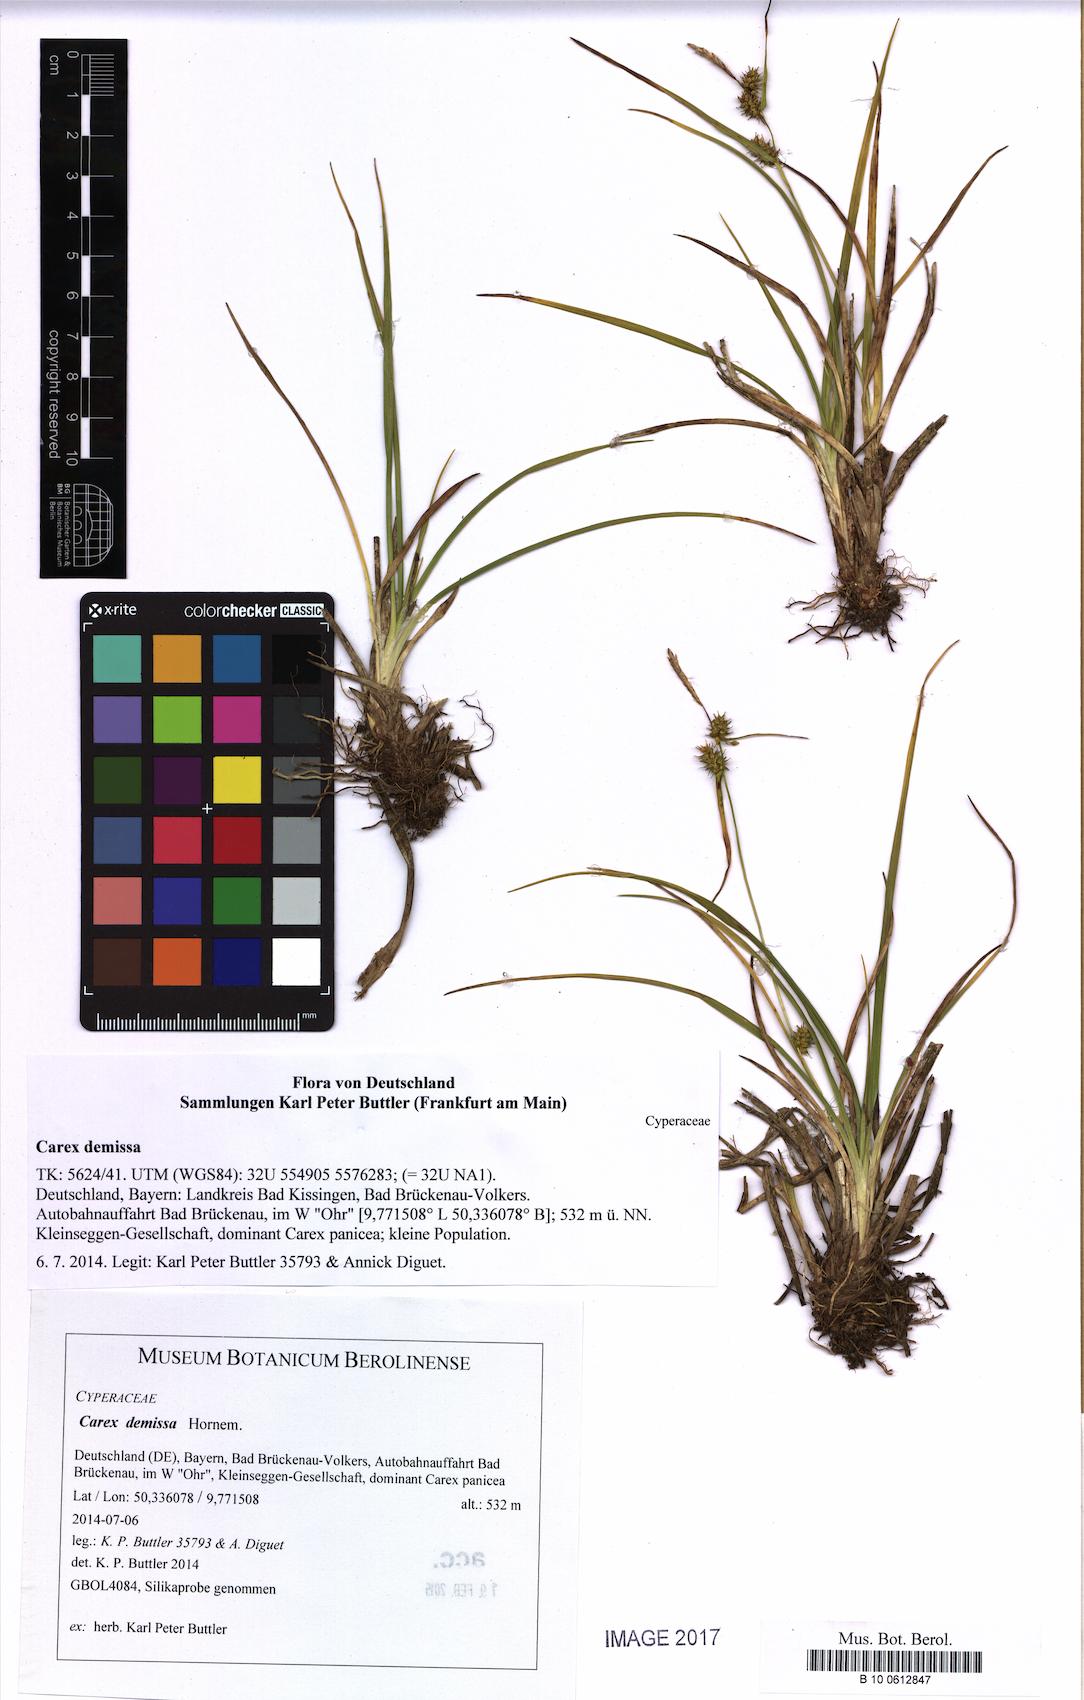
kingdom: Plantae
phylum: Tracheophyta
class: Liliopsida
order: Poales
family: Cyperaceae
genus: Carex
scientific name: Carex demissa
